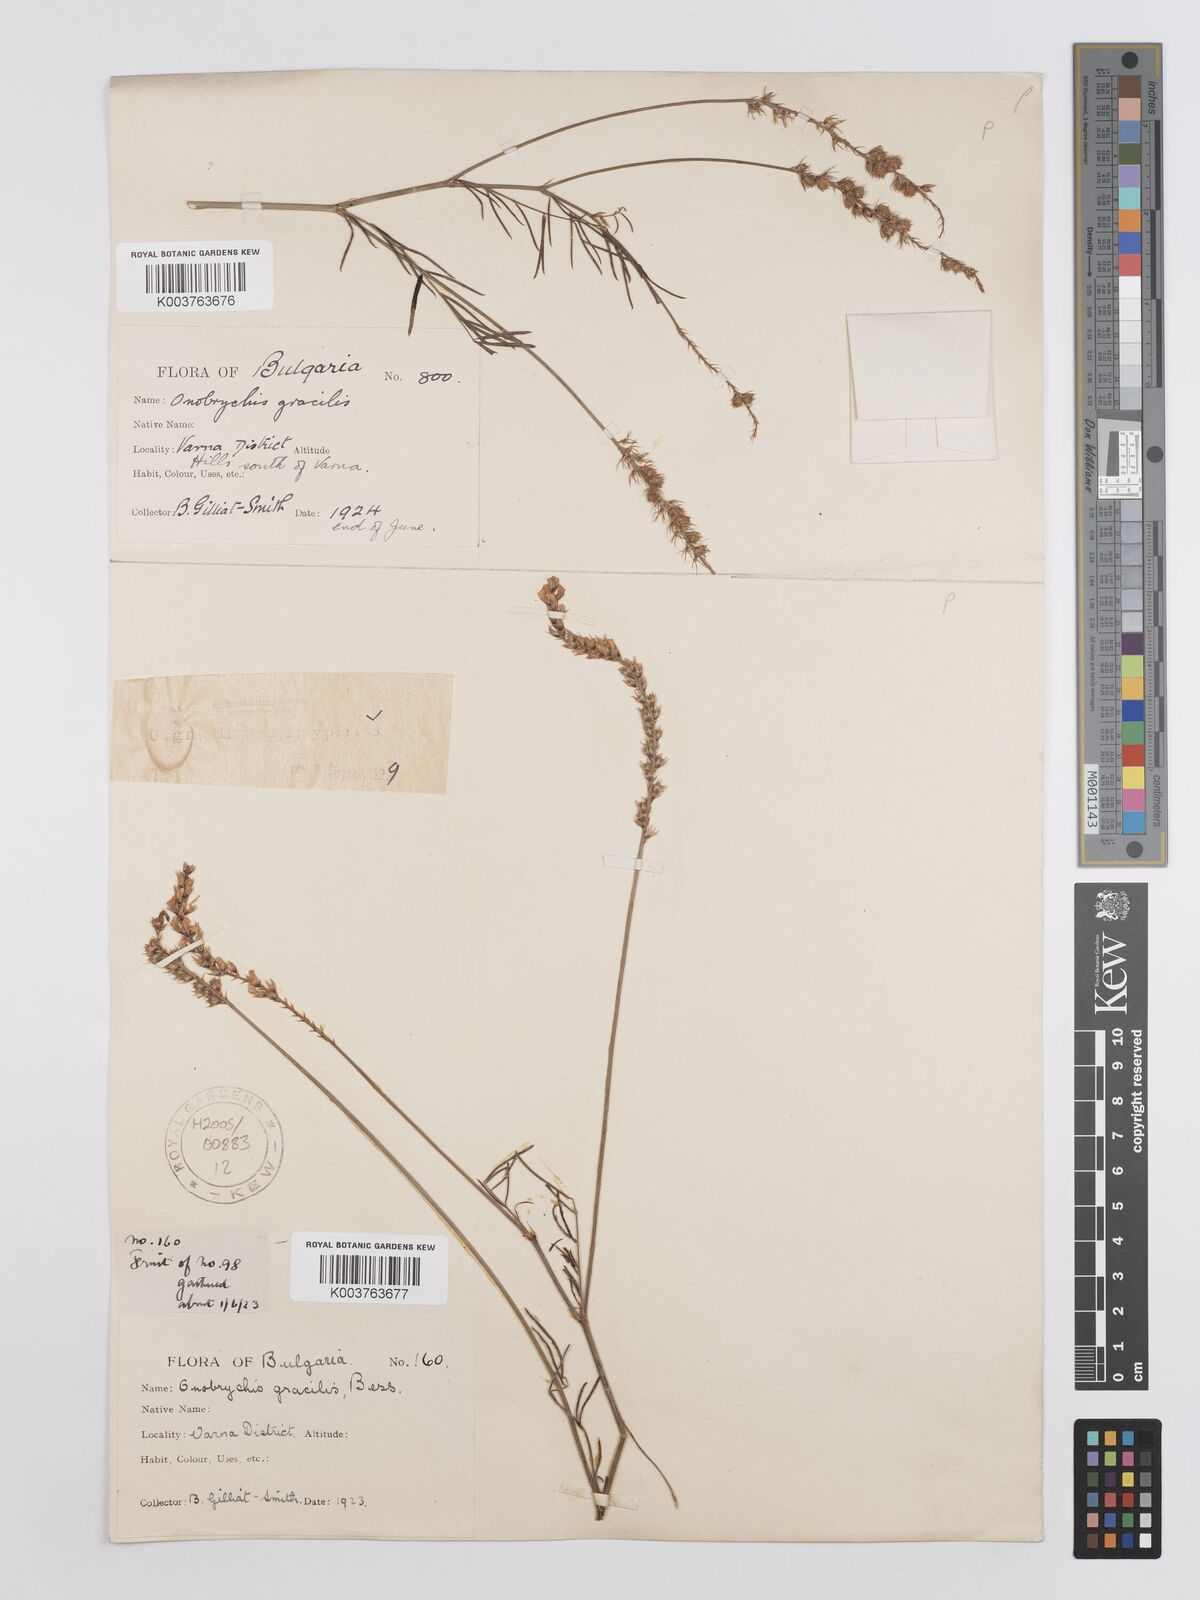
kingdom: Plantae
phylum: Tracheophyta
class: Magnoliopsida
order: Fabales
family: Fabaceae
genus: Onobrychis
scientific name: Onobrychis gracilis
